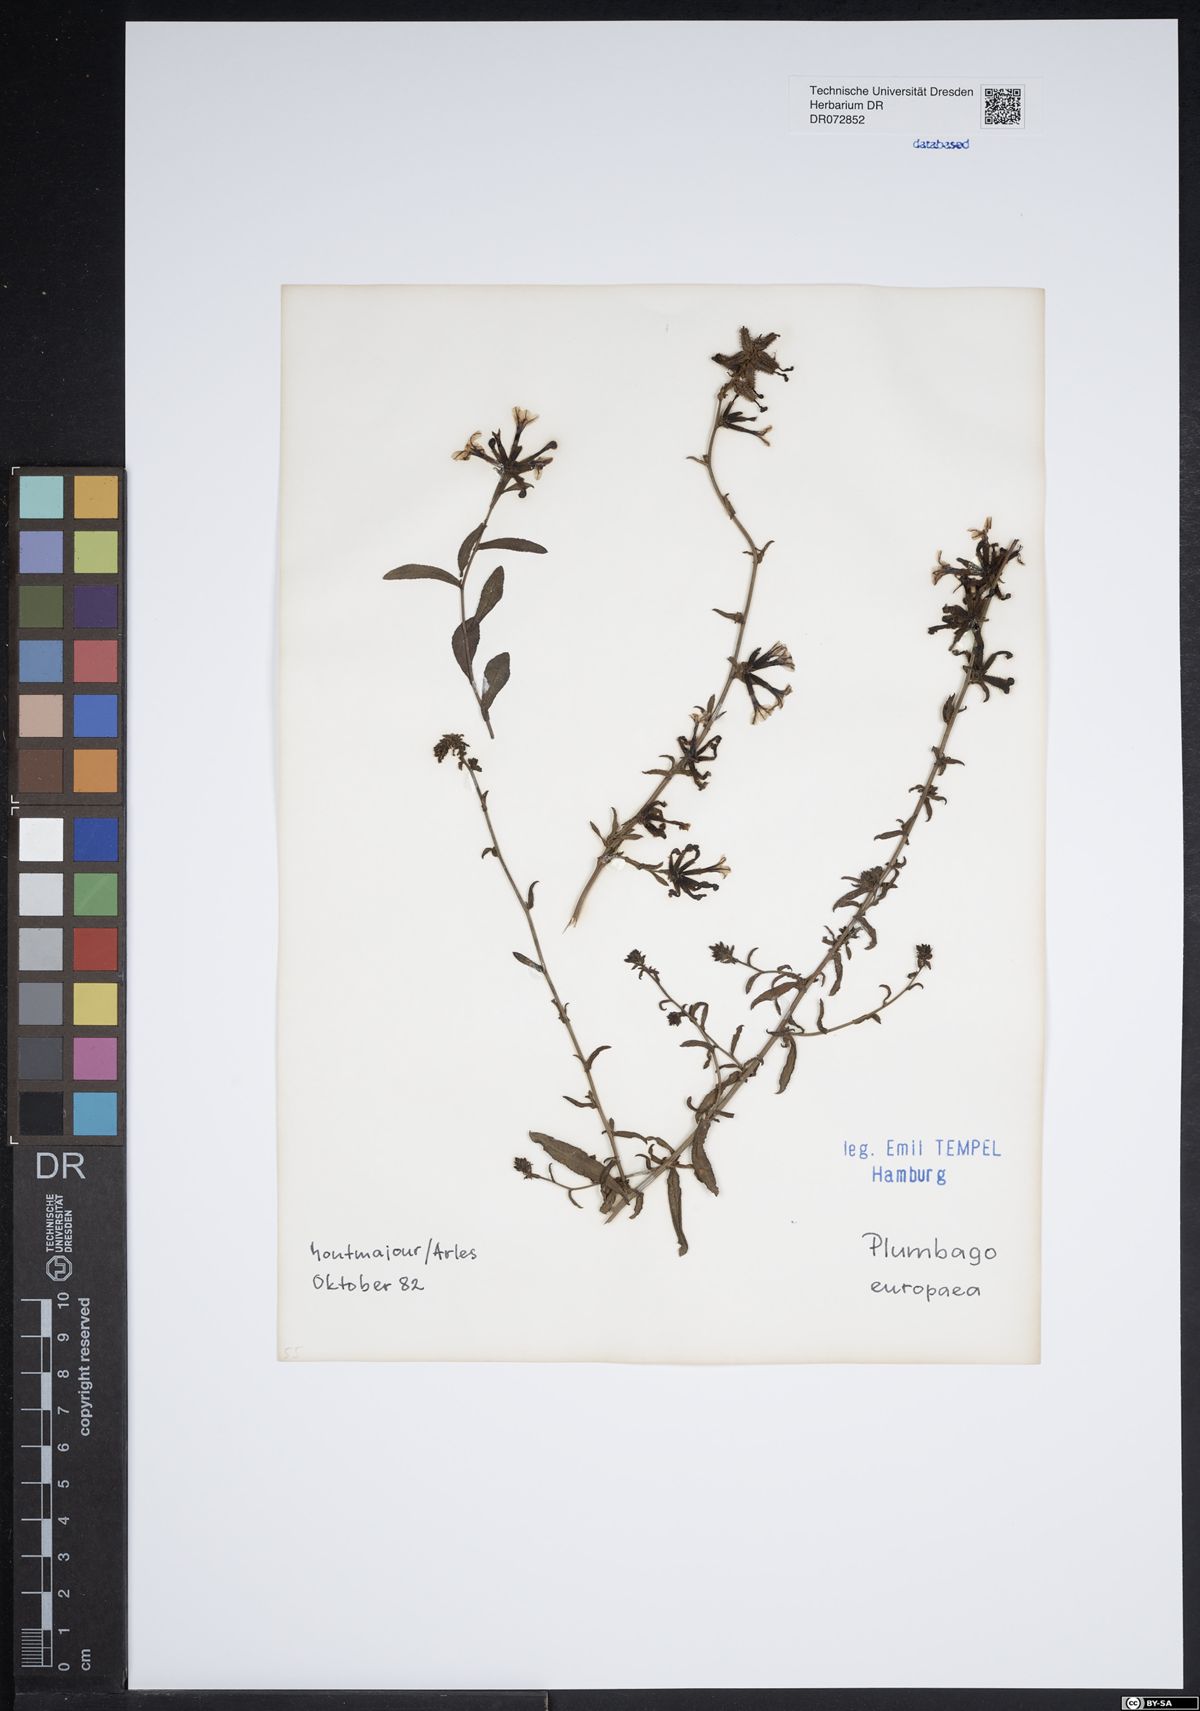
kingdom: Plantae
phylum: Tracheophyta
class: Magnoliopsida
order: Caryophyllales
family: Plumbaginaceae
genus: Plumbago
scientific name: Plumbago europaea
